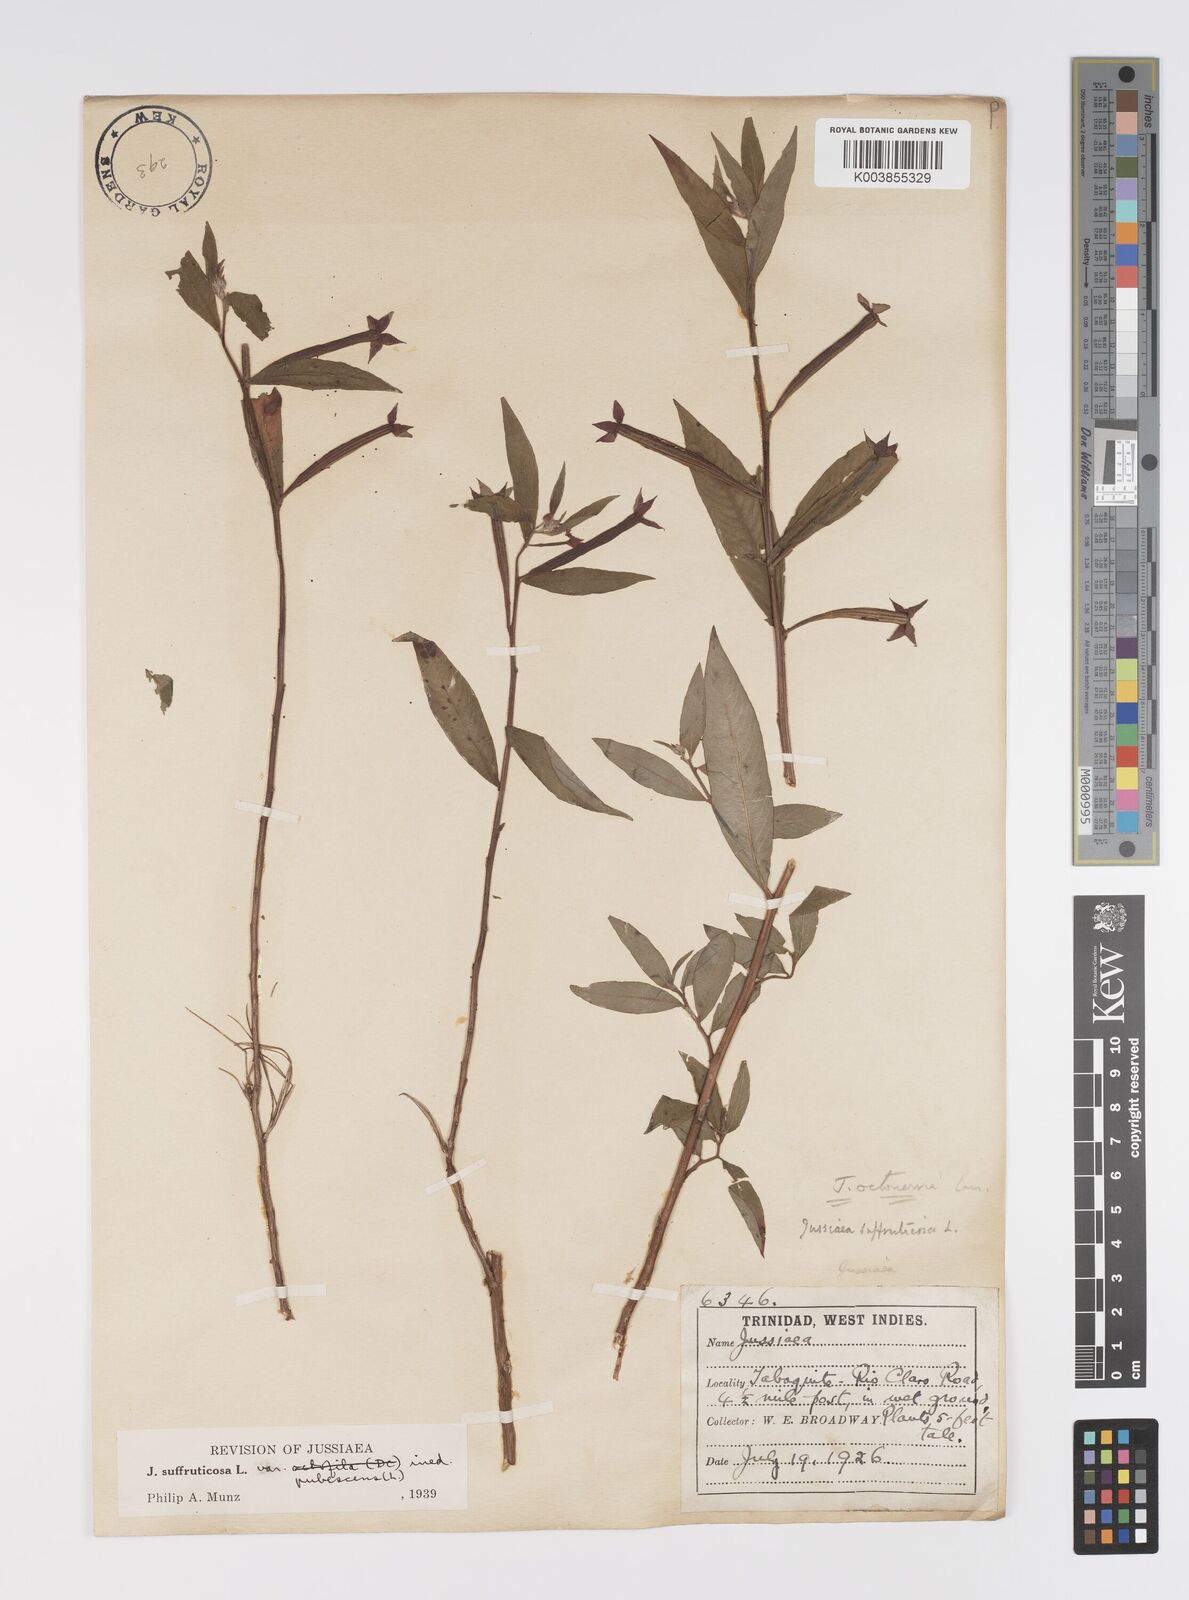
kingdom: Plantae
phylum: Tracheophyta
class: Magnoliopsida
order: Myrtales
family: Onagraceae
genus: Ludwigia
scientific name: Ludwigia
